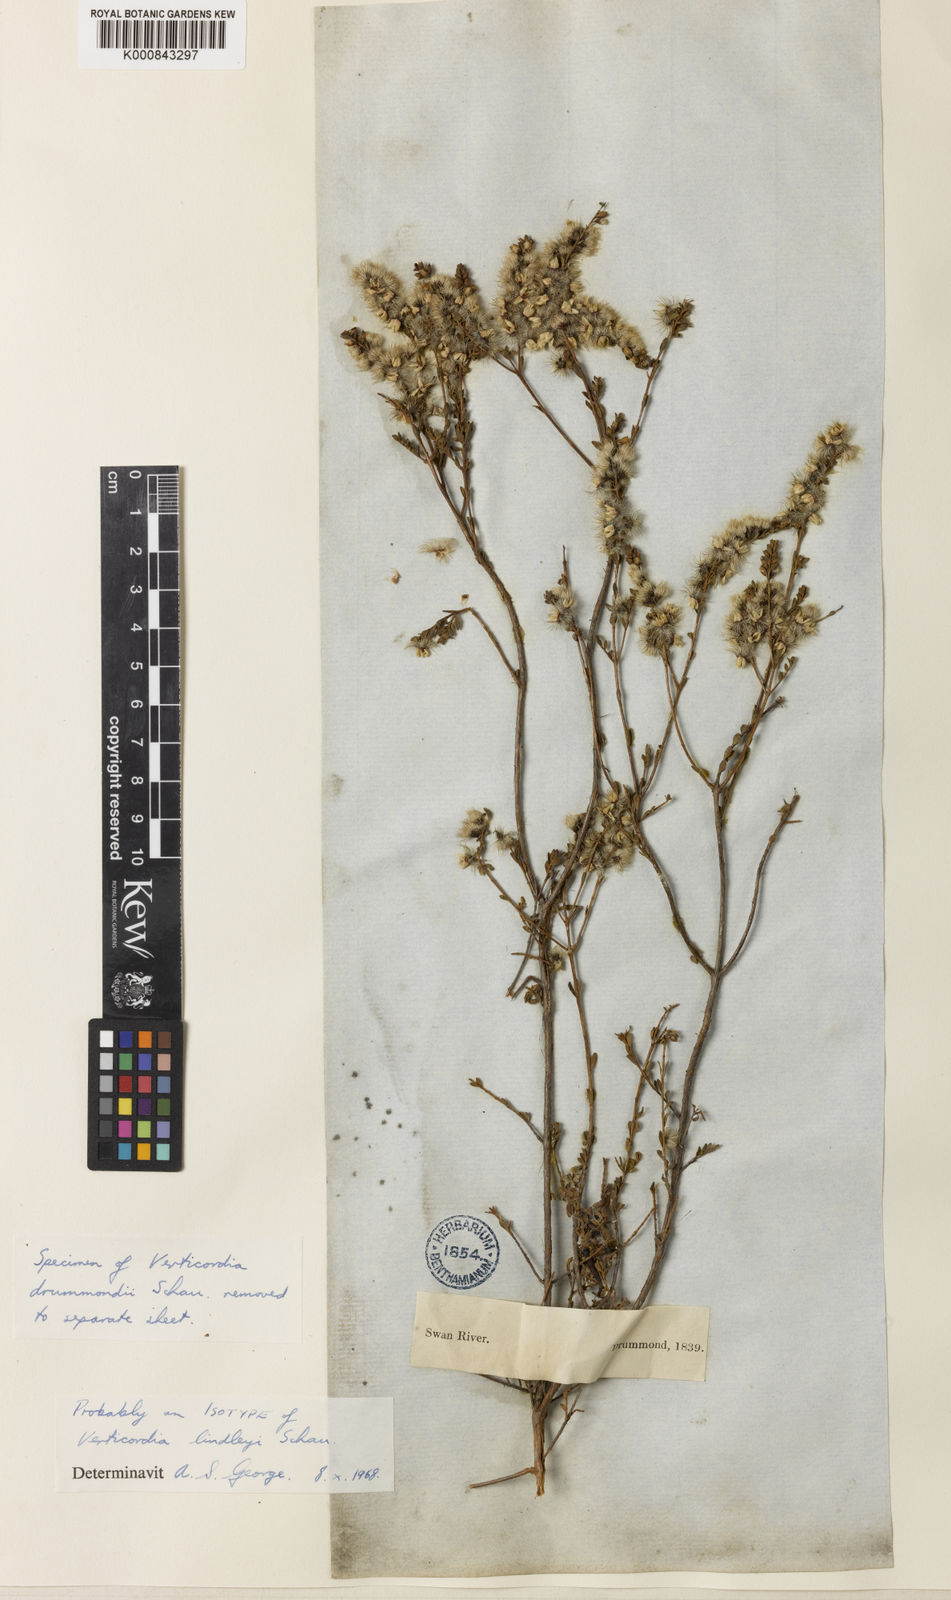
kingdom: Plantae
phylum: Tracheophyta
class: Magnoliopsida
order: Myrtales
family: Myrtaceae
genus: Verticordia
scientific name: Verticordia lindleyi
